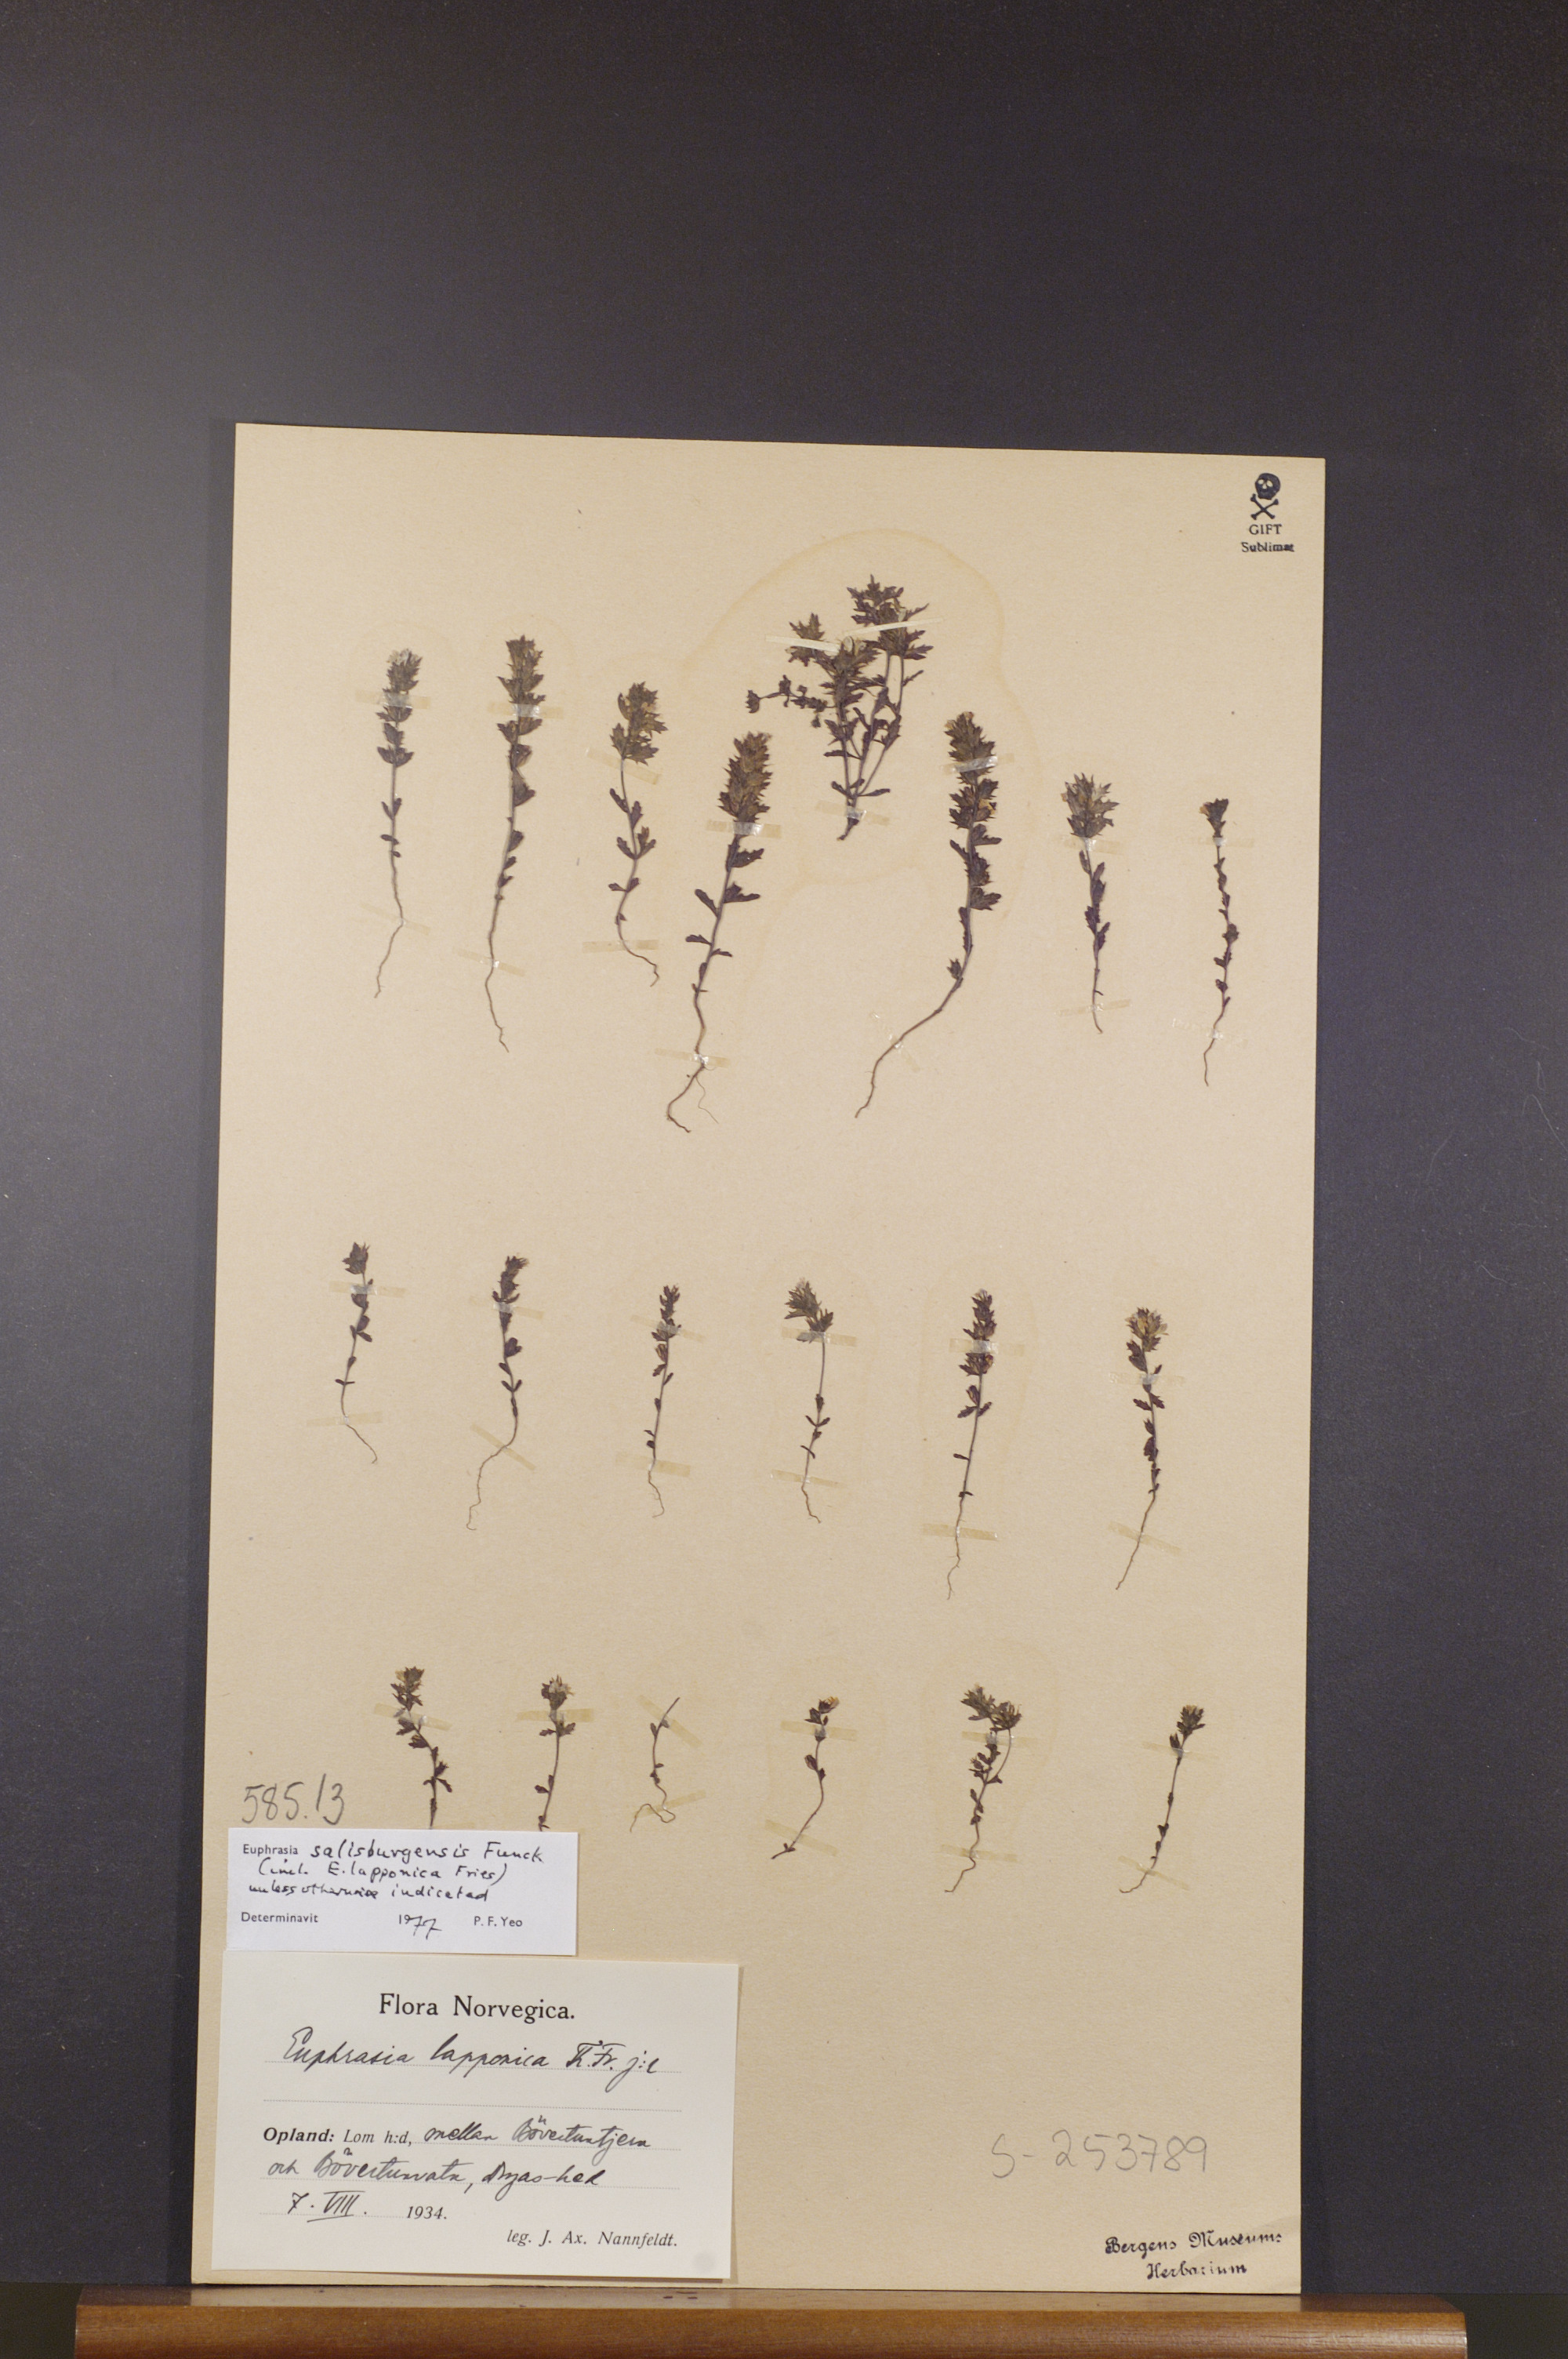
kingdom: Plantae
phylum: Tracheophyta
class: Magnoliopsida
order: Lamiales
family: Orobanchaceae
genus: Euphrasia
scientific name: Euphrasia salisburgensis
